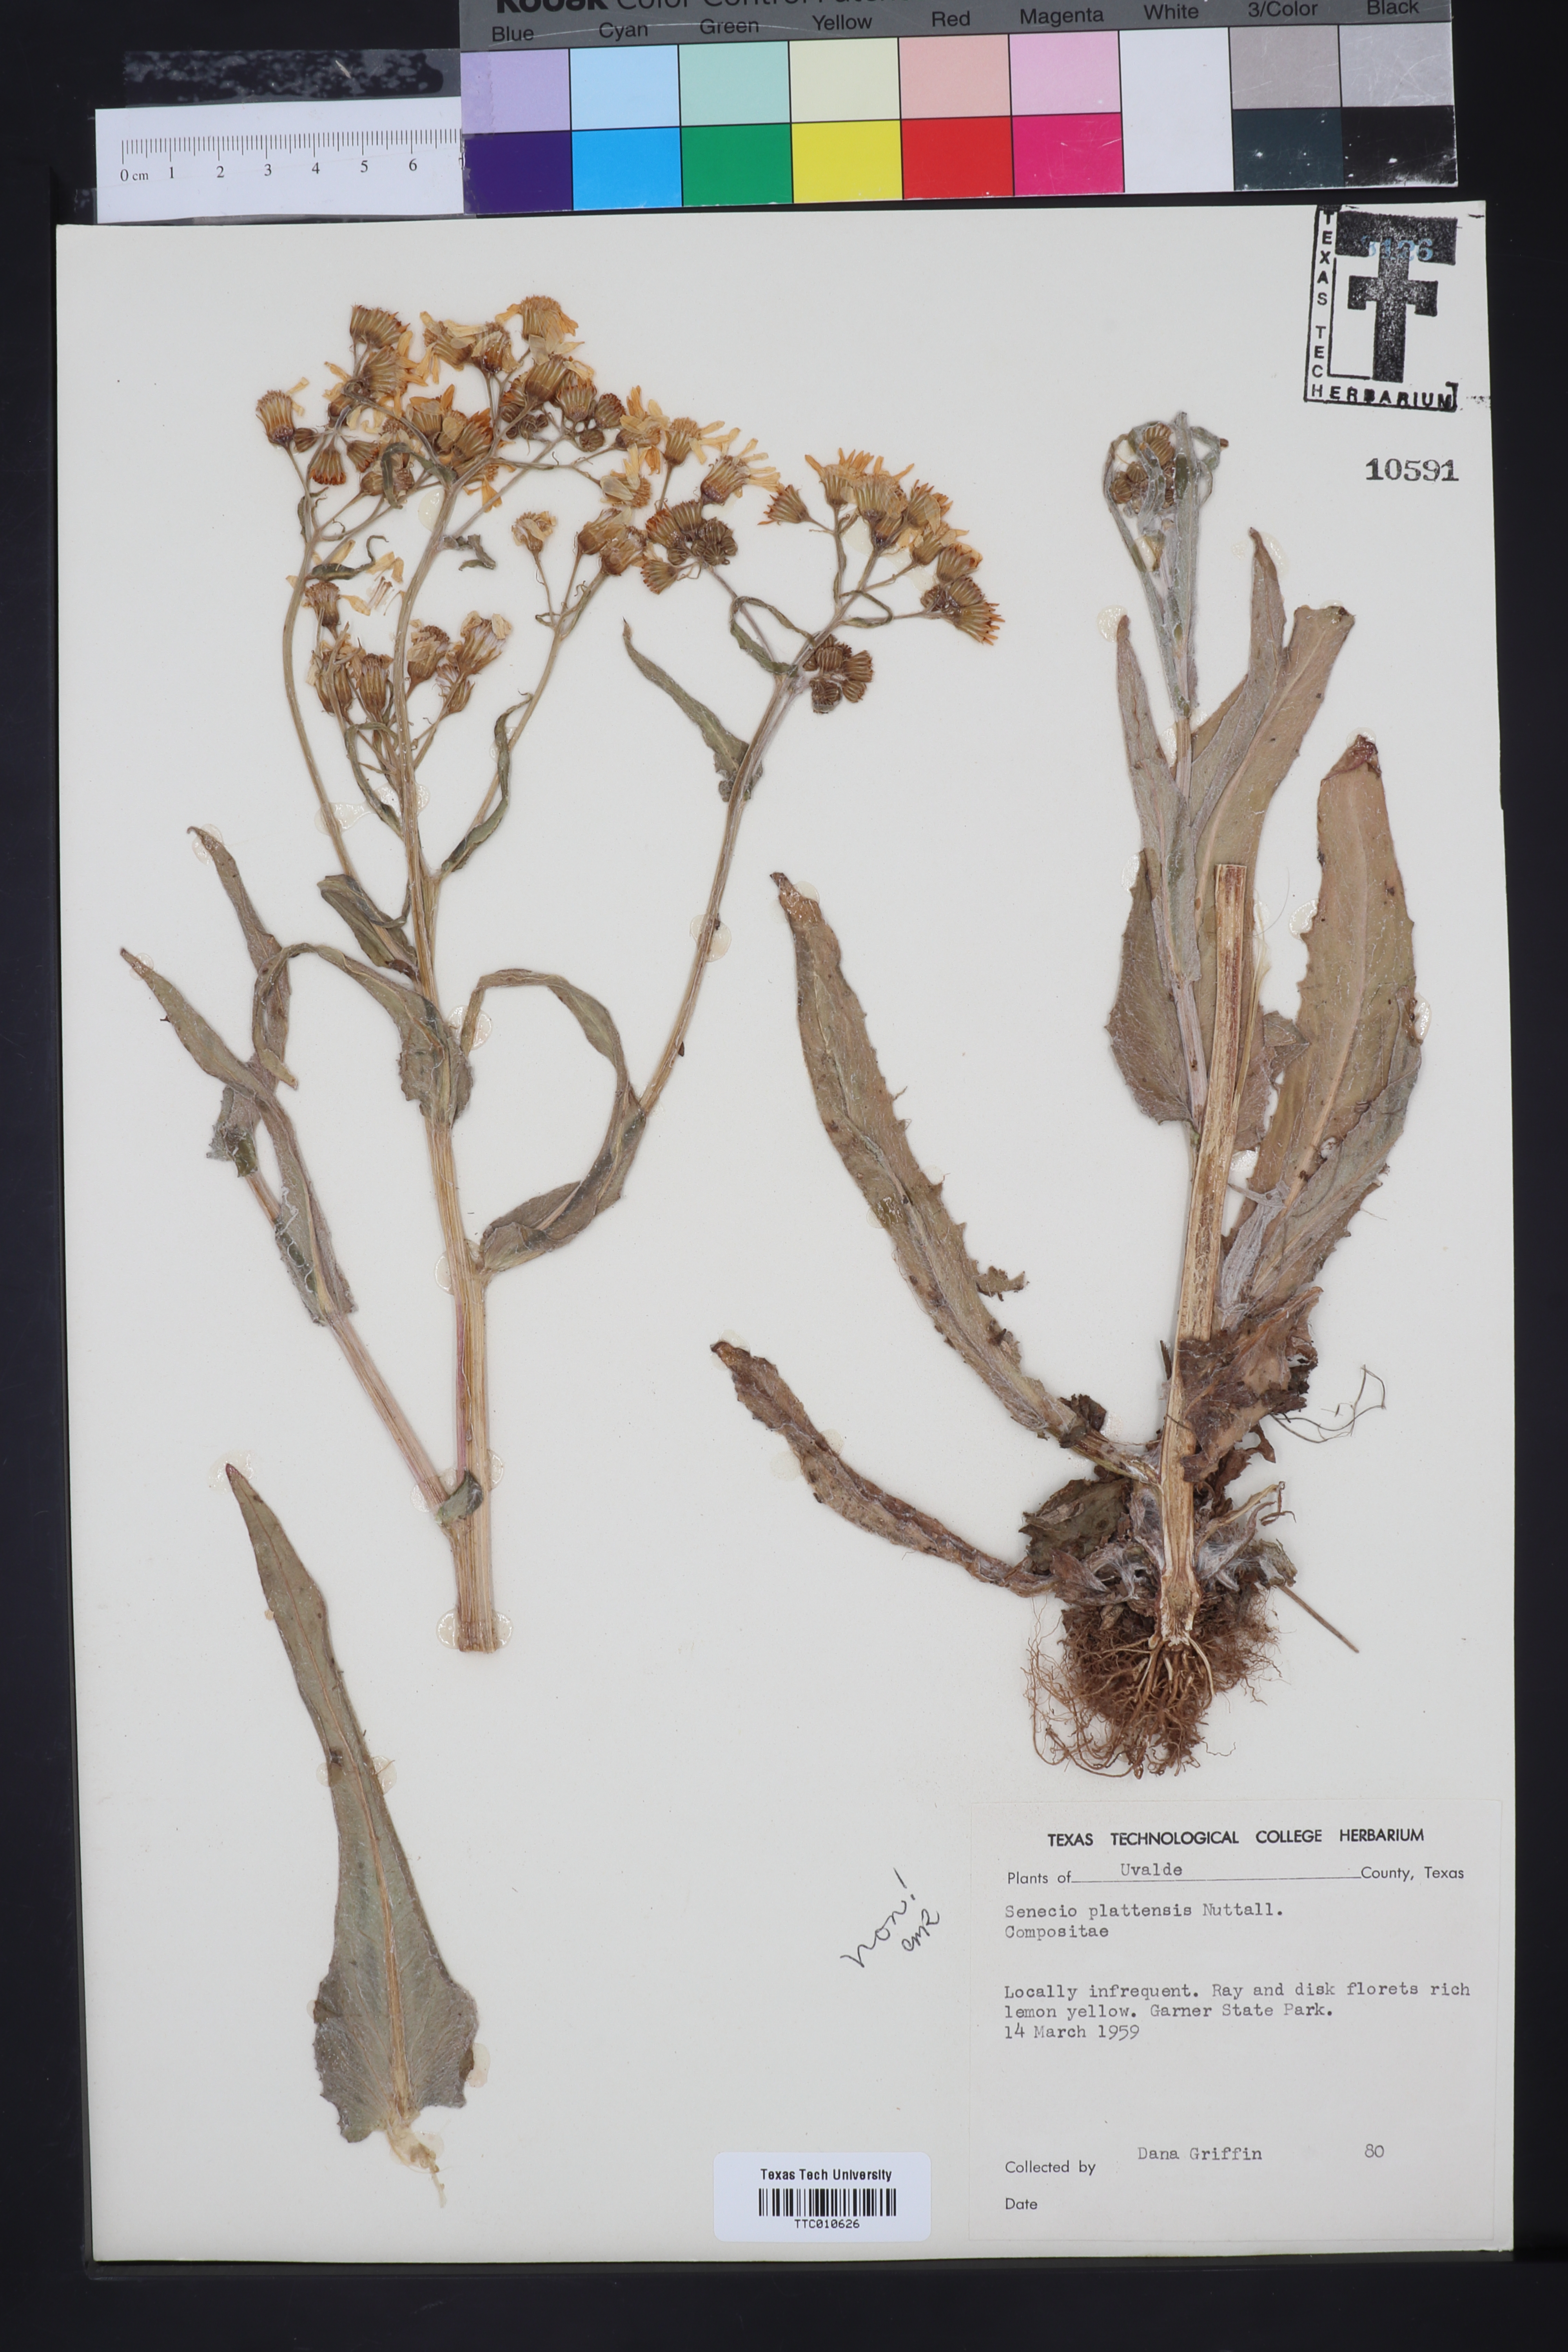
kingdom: Plantae
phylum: Tracheophyta
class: Magnoliopsida
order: Asterales
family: Asteraceae
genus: Senecio
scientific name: Senecio
